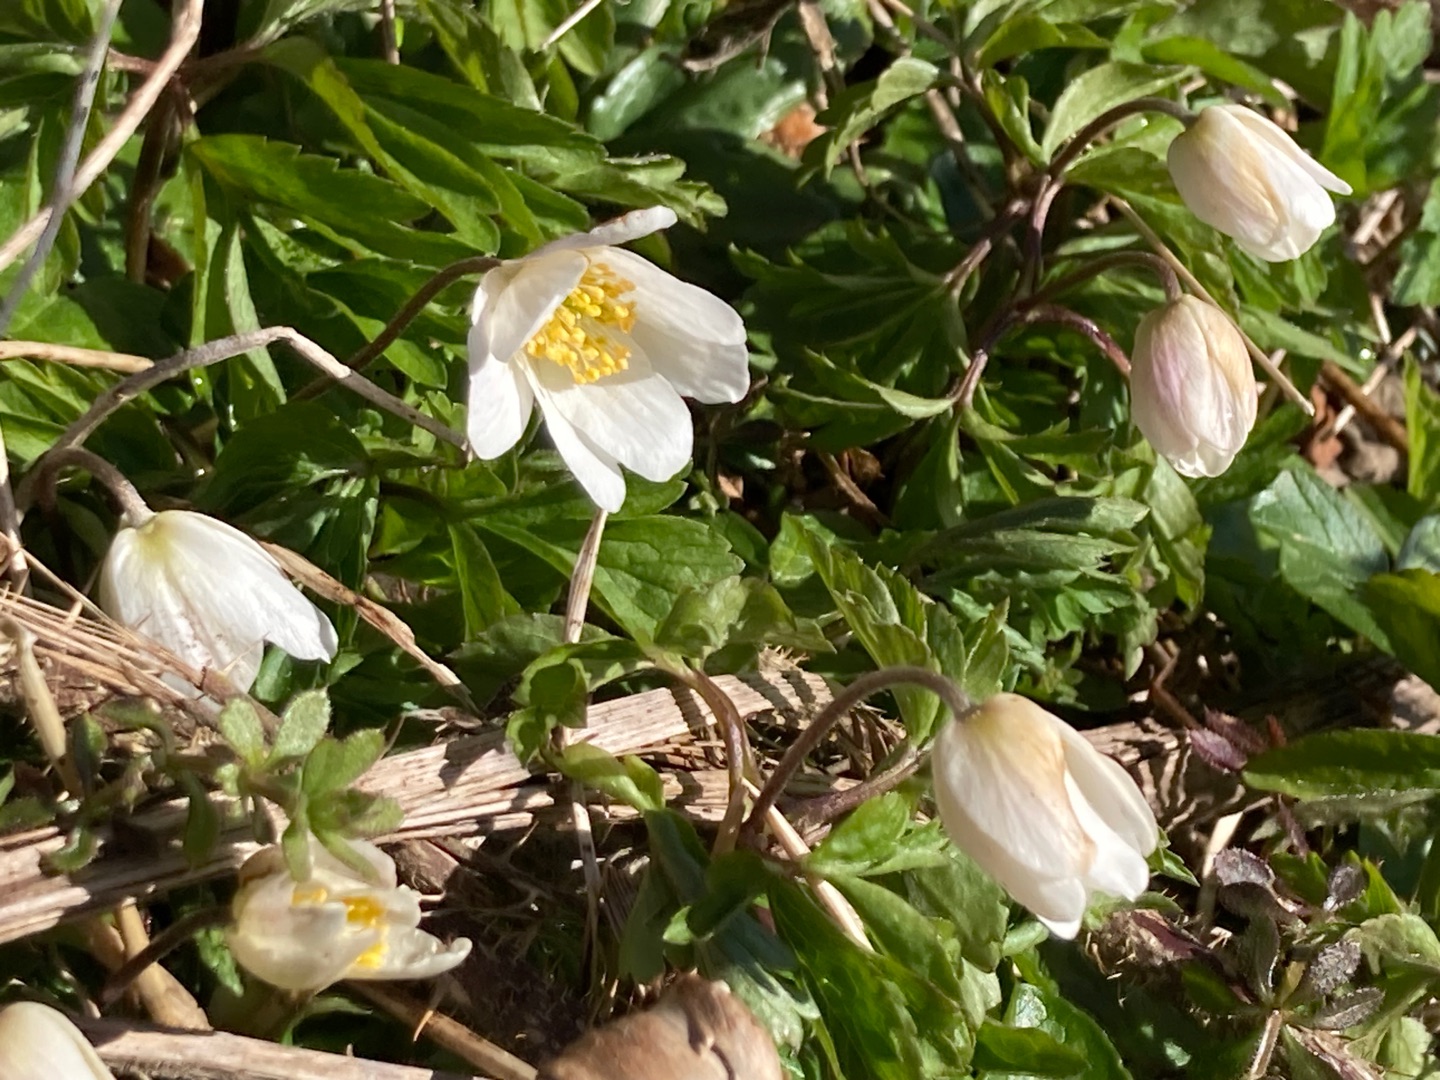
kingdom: Plantae
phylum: Tracheophyta
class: Magnoliopsida
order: Ranunculales
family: Ranunculaceae
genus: Anemone
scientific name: Anemone nemorosa
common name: Hvid anemone
